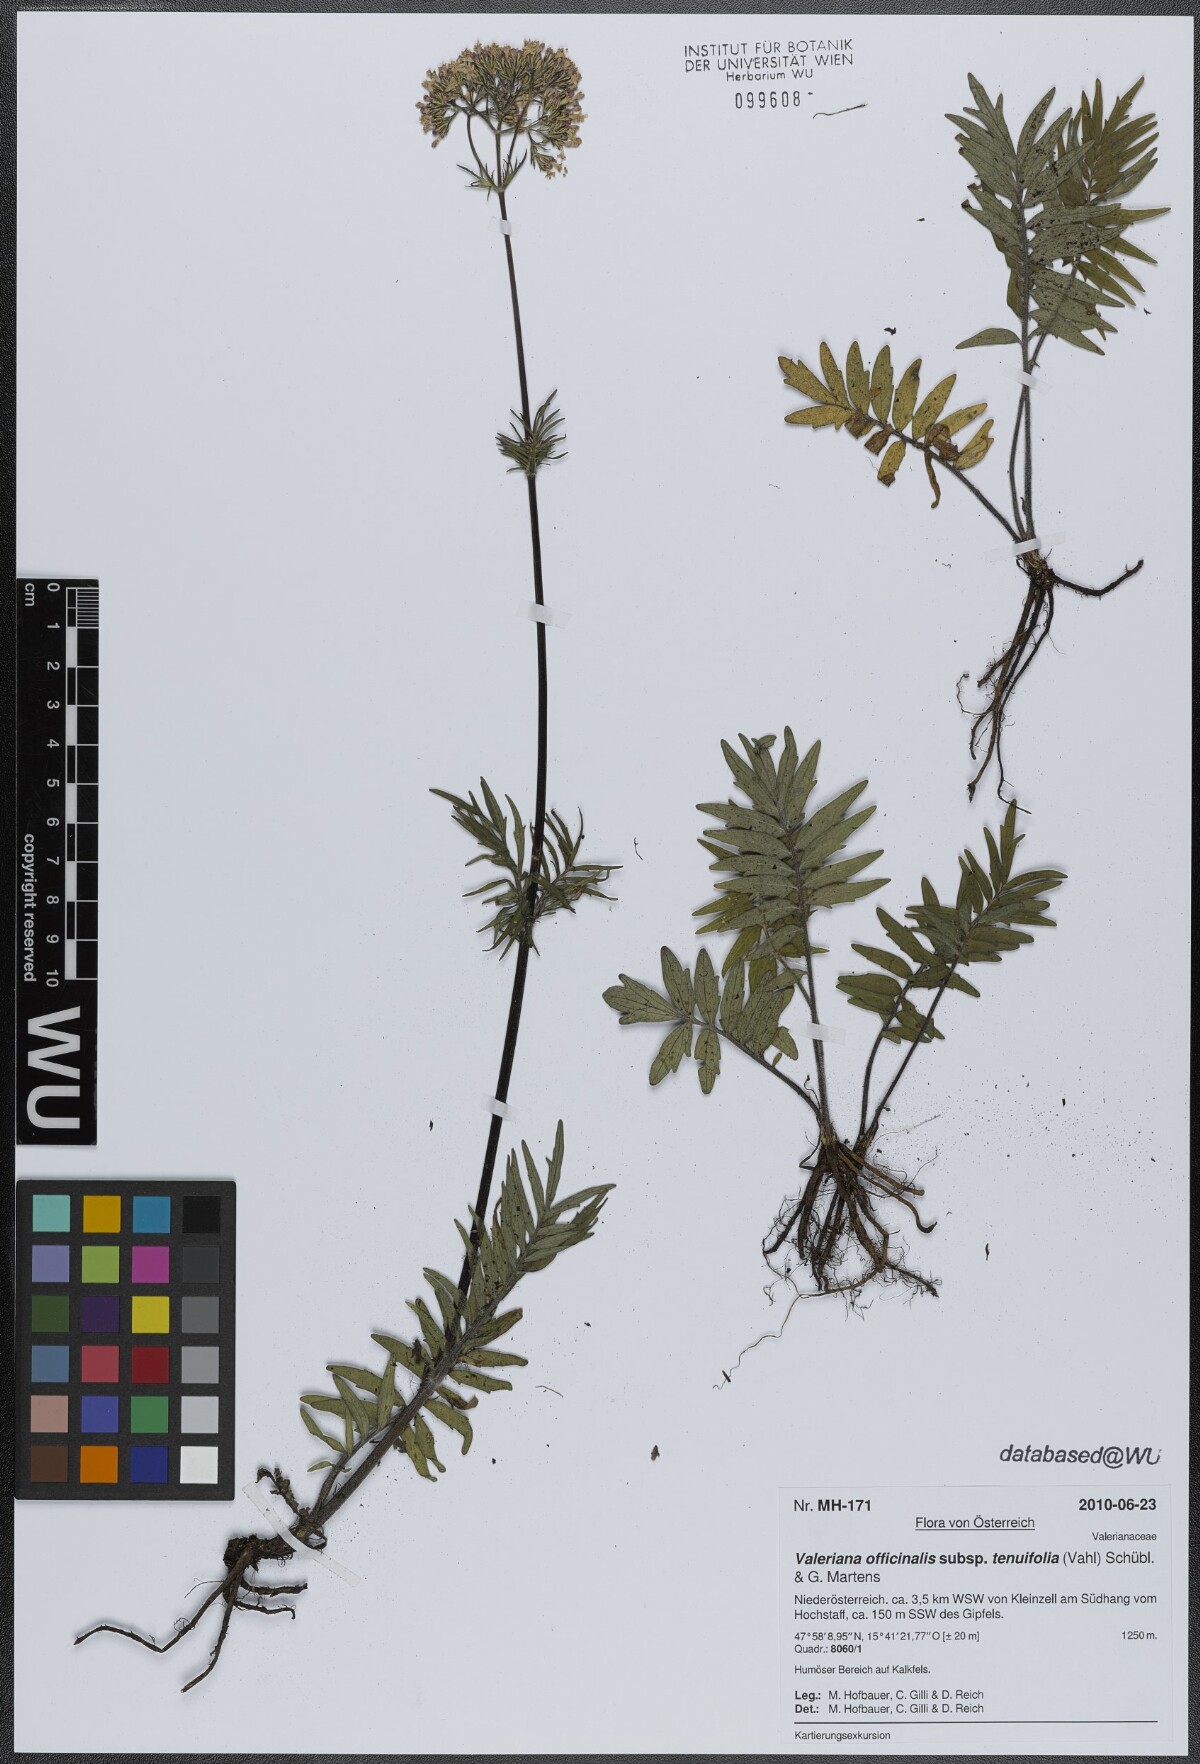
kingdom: Plantae
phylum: Tracheophyta
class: Magnoliopsida
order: Dipsacales
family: Caprifoliaceae
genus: Valeriana
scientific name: Valeriana officinalis
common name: Common valerian
